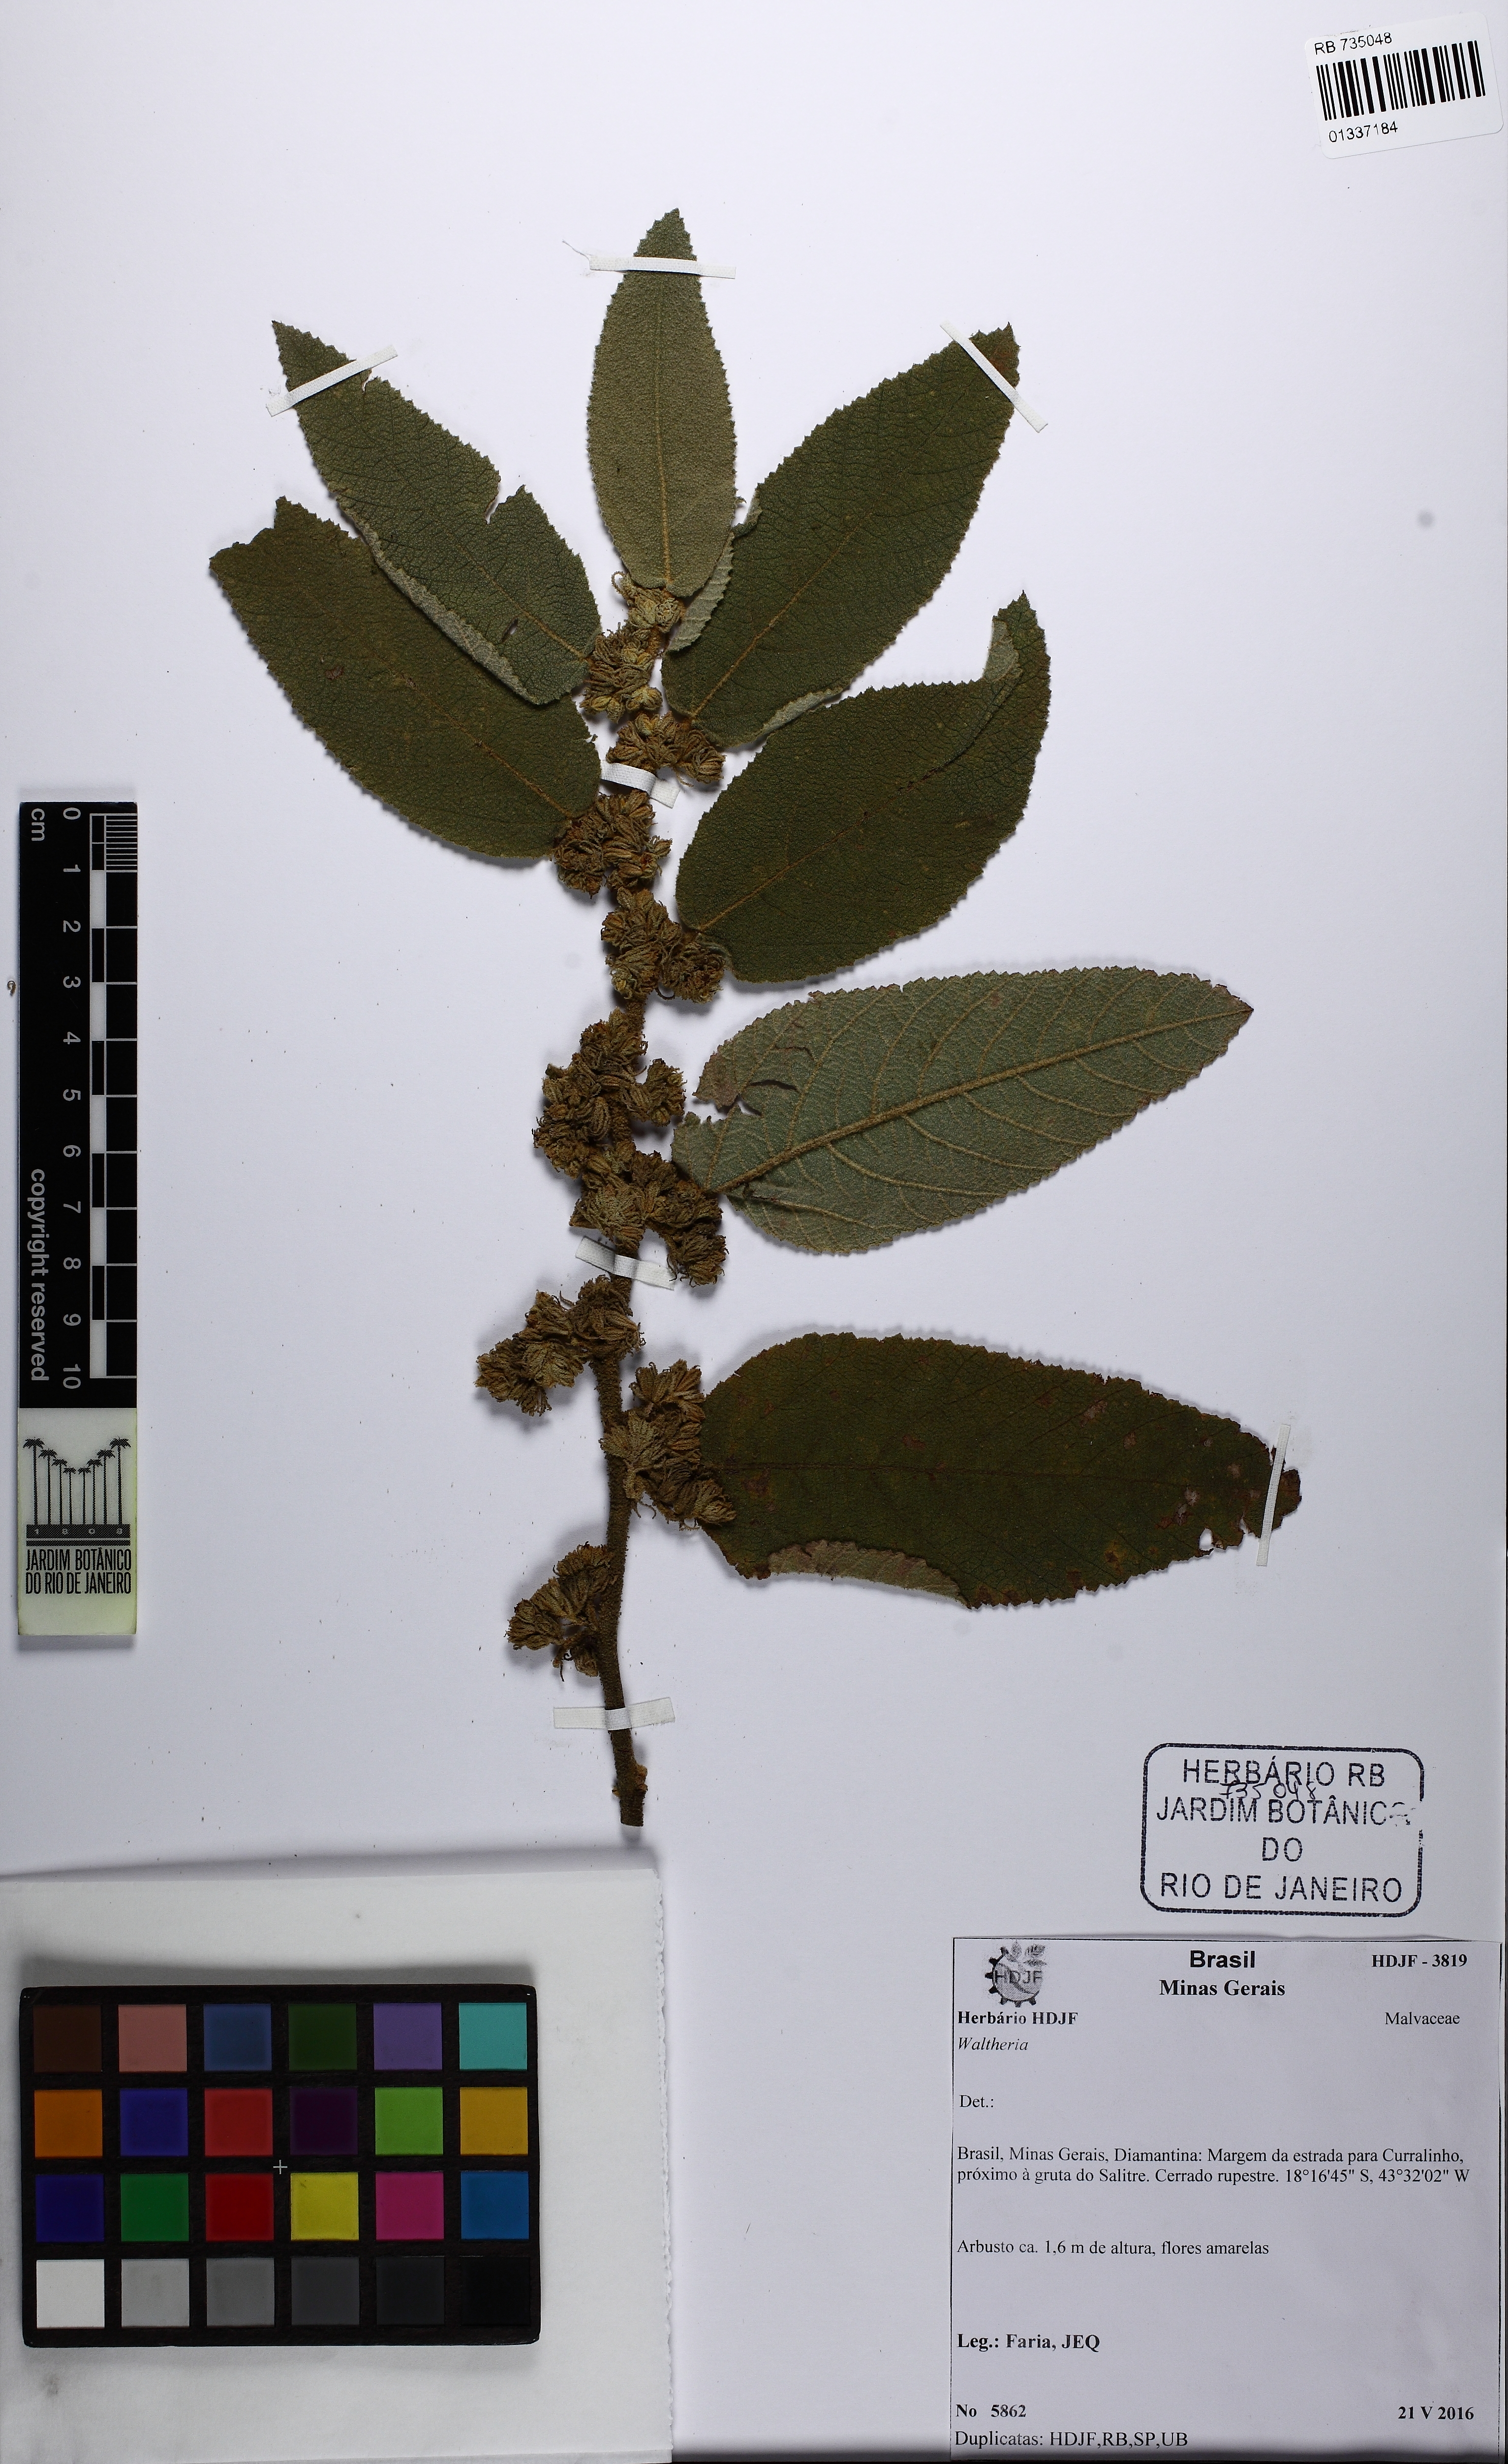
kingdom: Plantae
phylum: Tracheophyta
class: Magnoliopsida
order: Malvales
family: Malvaceae
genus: Waltheria
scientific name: Waltheria
